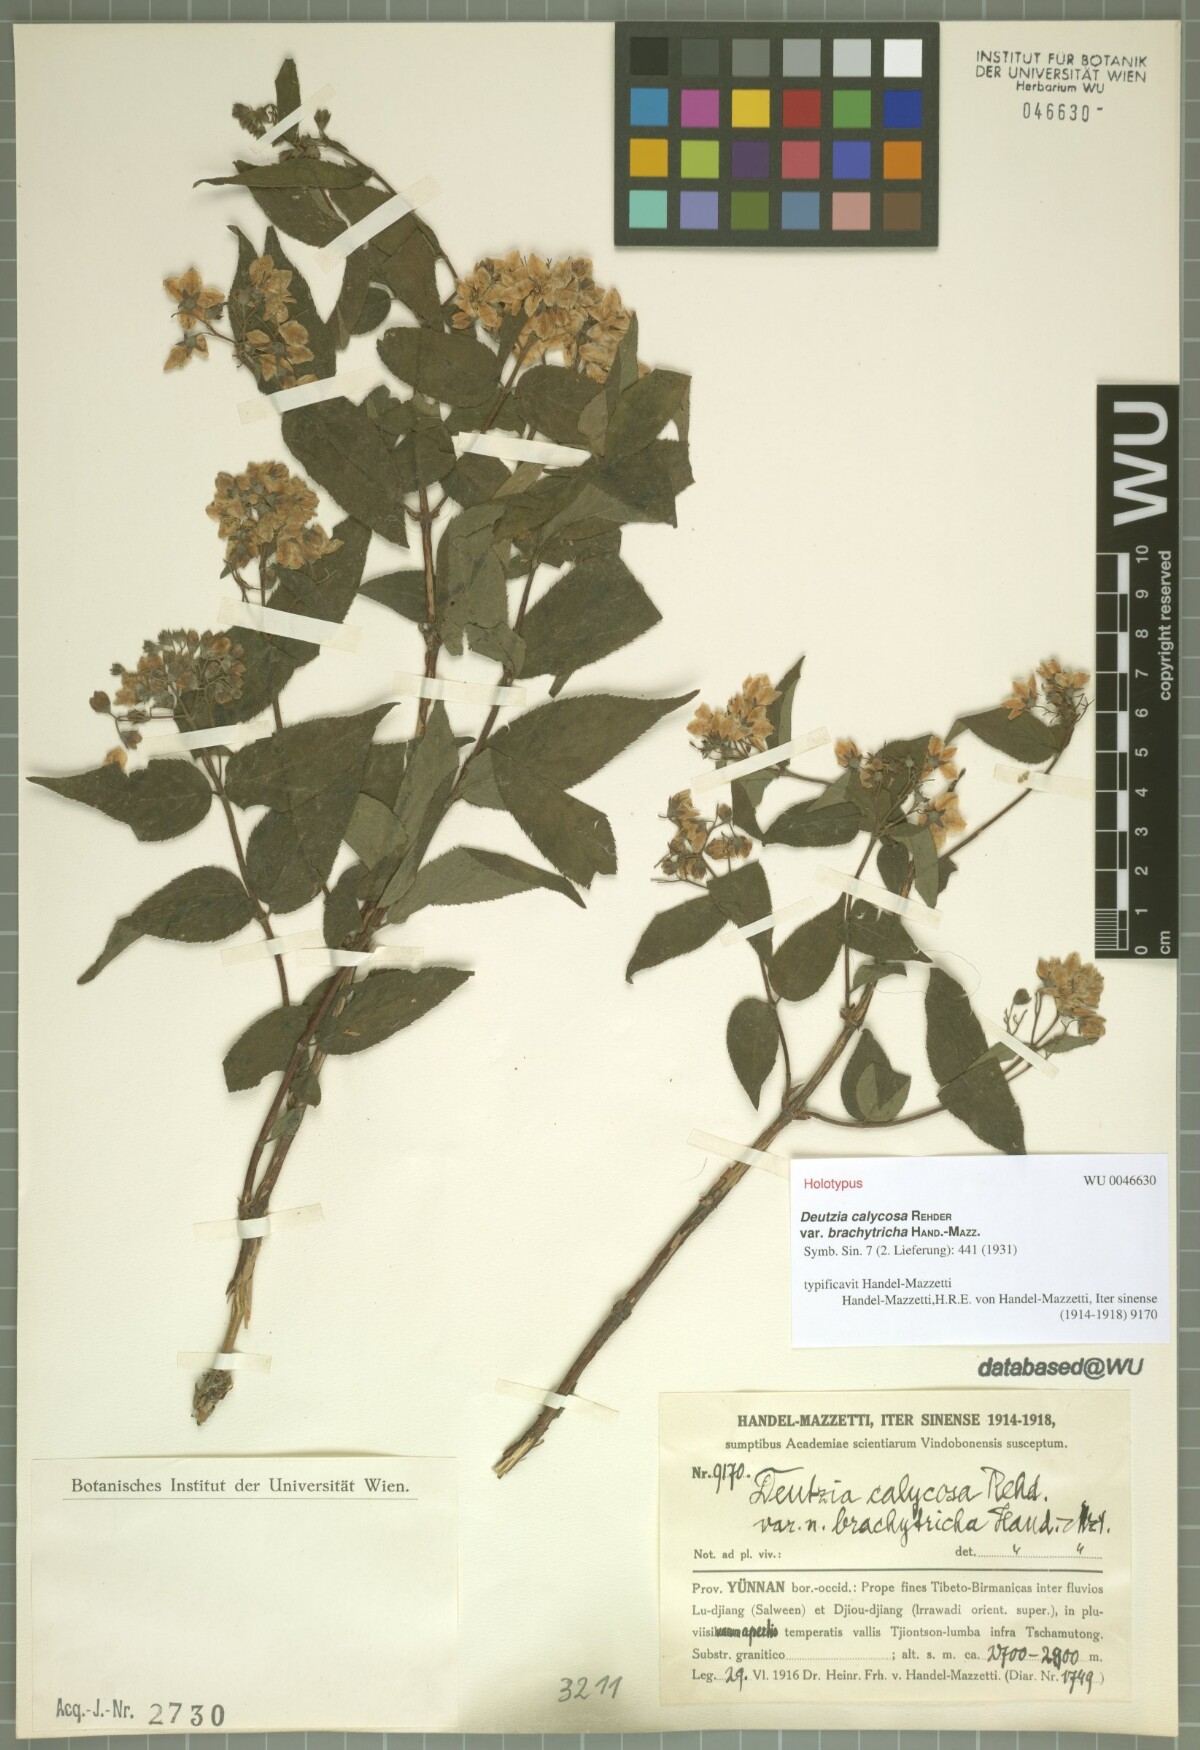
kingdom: Plantae
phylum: Tracheophyta
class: Magnoliopsida
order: Cornales
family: Hydrangeaceae
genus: Deutzia
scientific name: Deutzia calycosa
